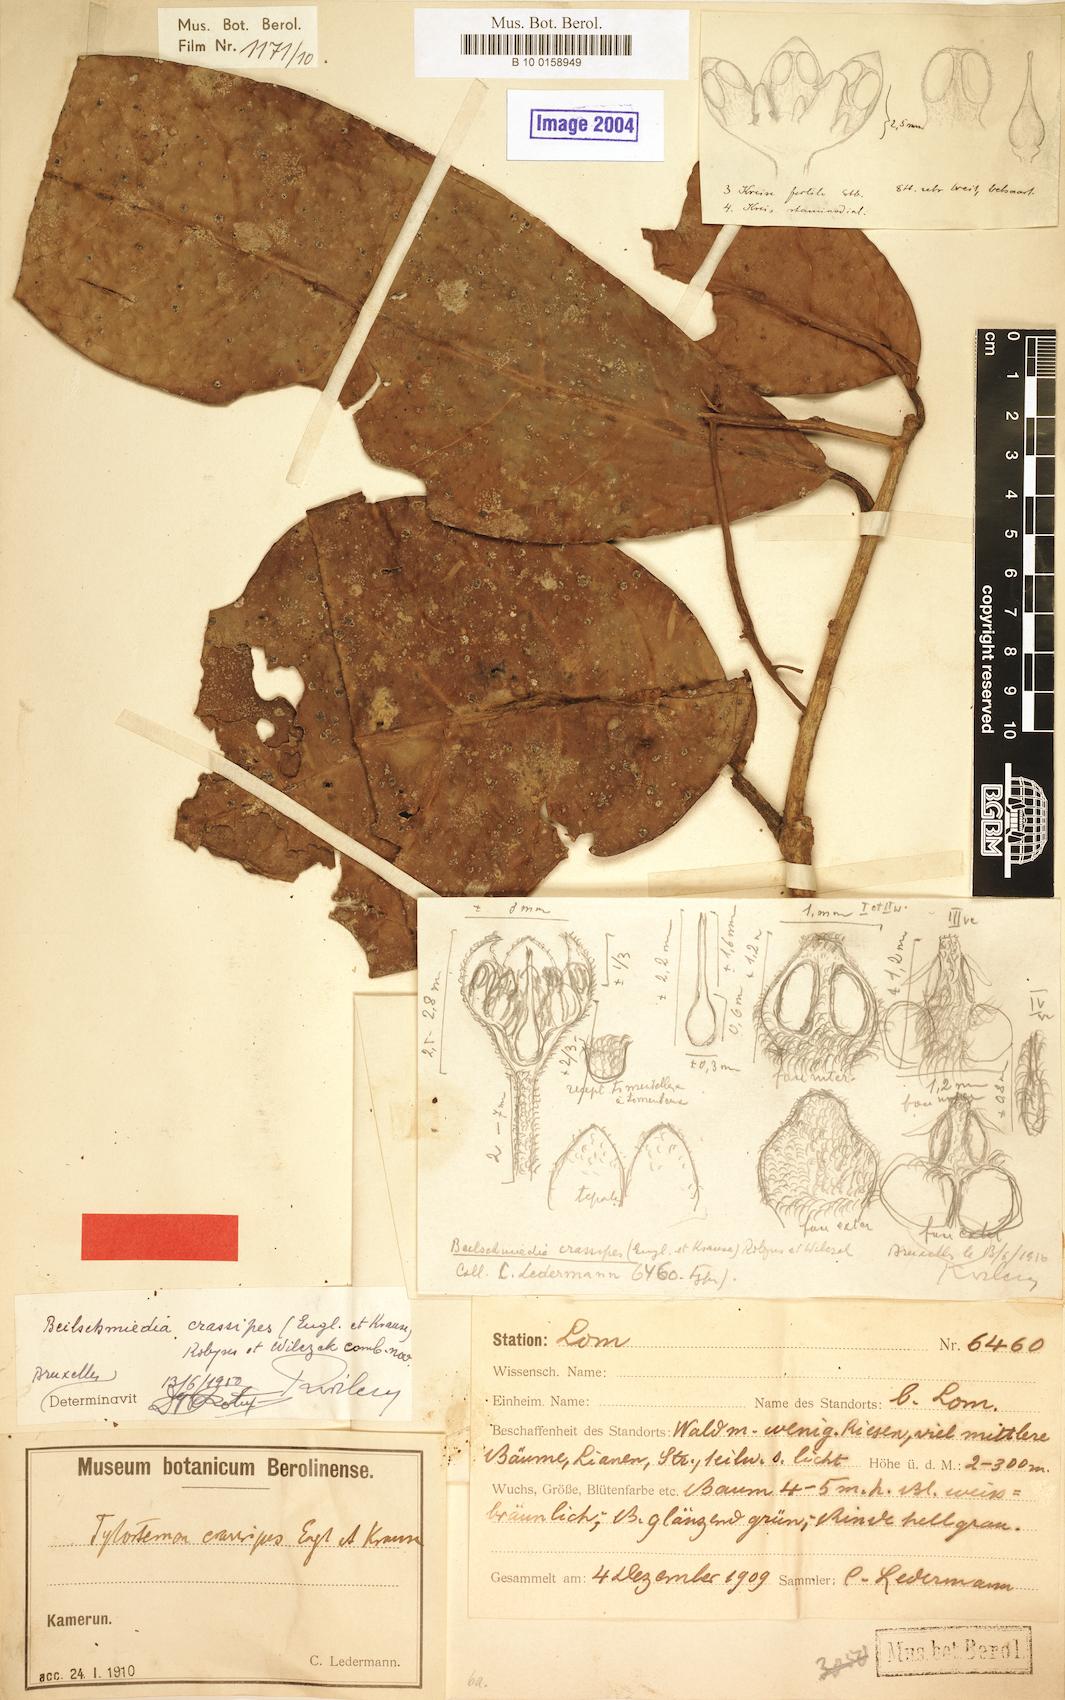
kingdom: Plantae
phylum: Tracheophyta
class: Magnoliopsida
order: Laurales
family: Lauraceae
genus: Beilschmiedia
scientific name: Beilschmiedia crassipes
